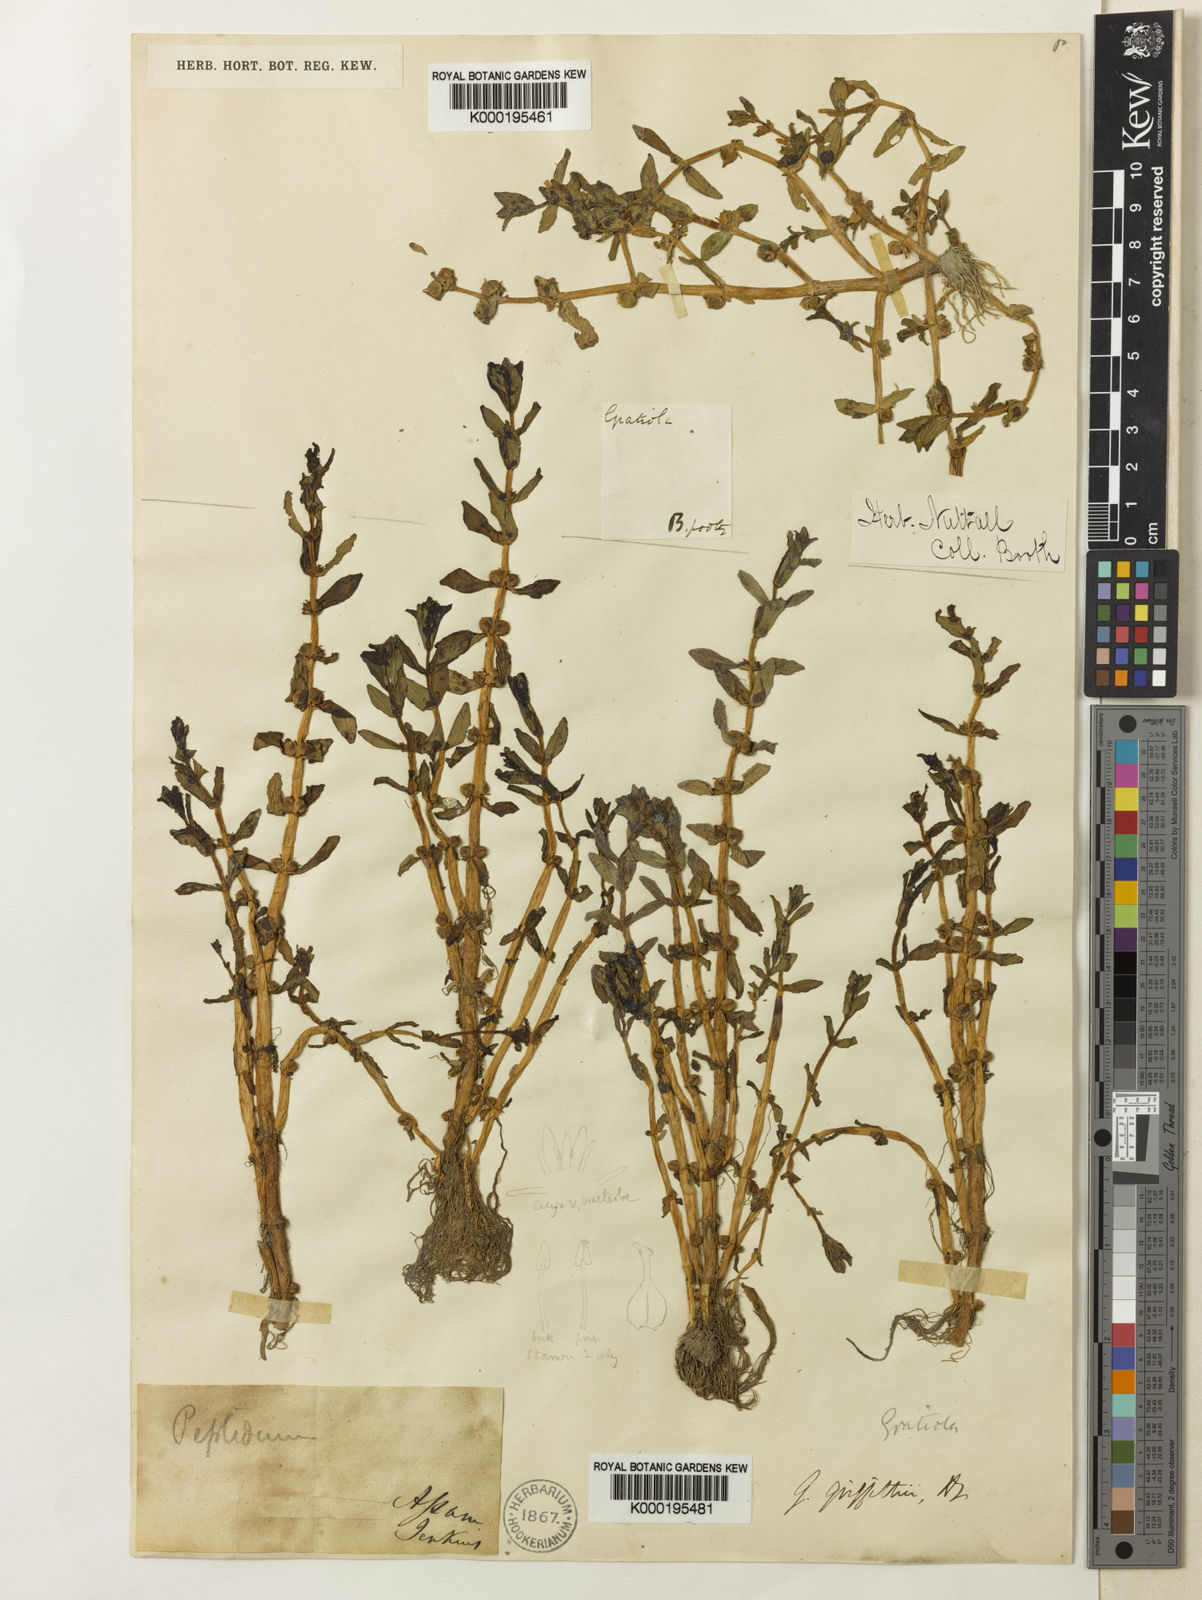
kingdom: Plantae
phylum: Tracheophyta
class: Magnoliopsida
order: Lamiales
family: Plantaginaceae
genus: Gratiola
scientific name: Gratiola griffithii
